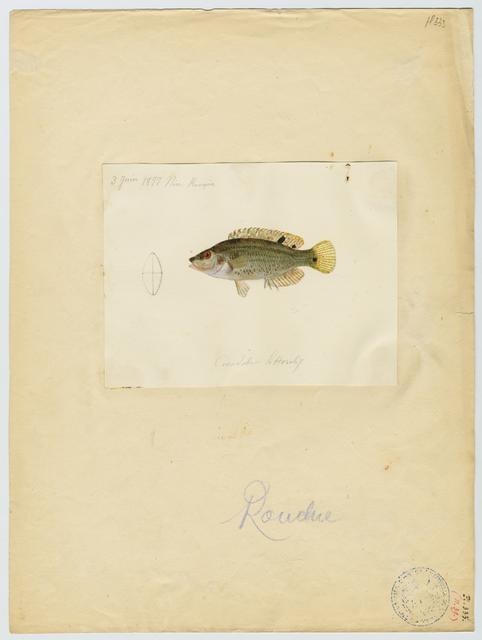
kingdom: Animalia
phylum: Chordata
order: Perciformes
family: Labridae
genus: Symphodus
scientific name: Symphodus roissali
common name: Five-spotted wrasse
